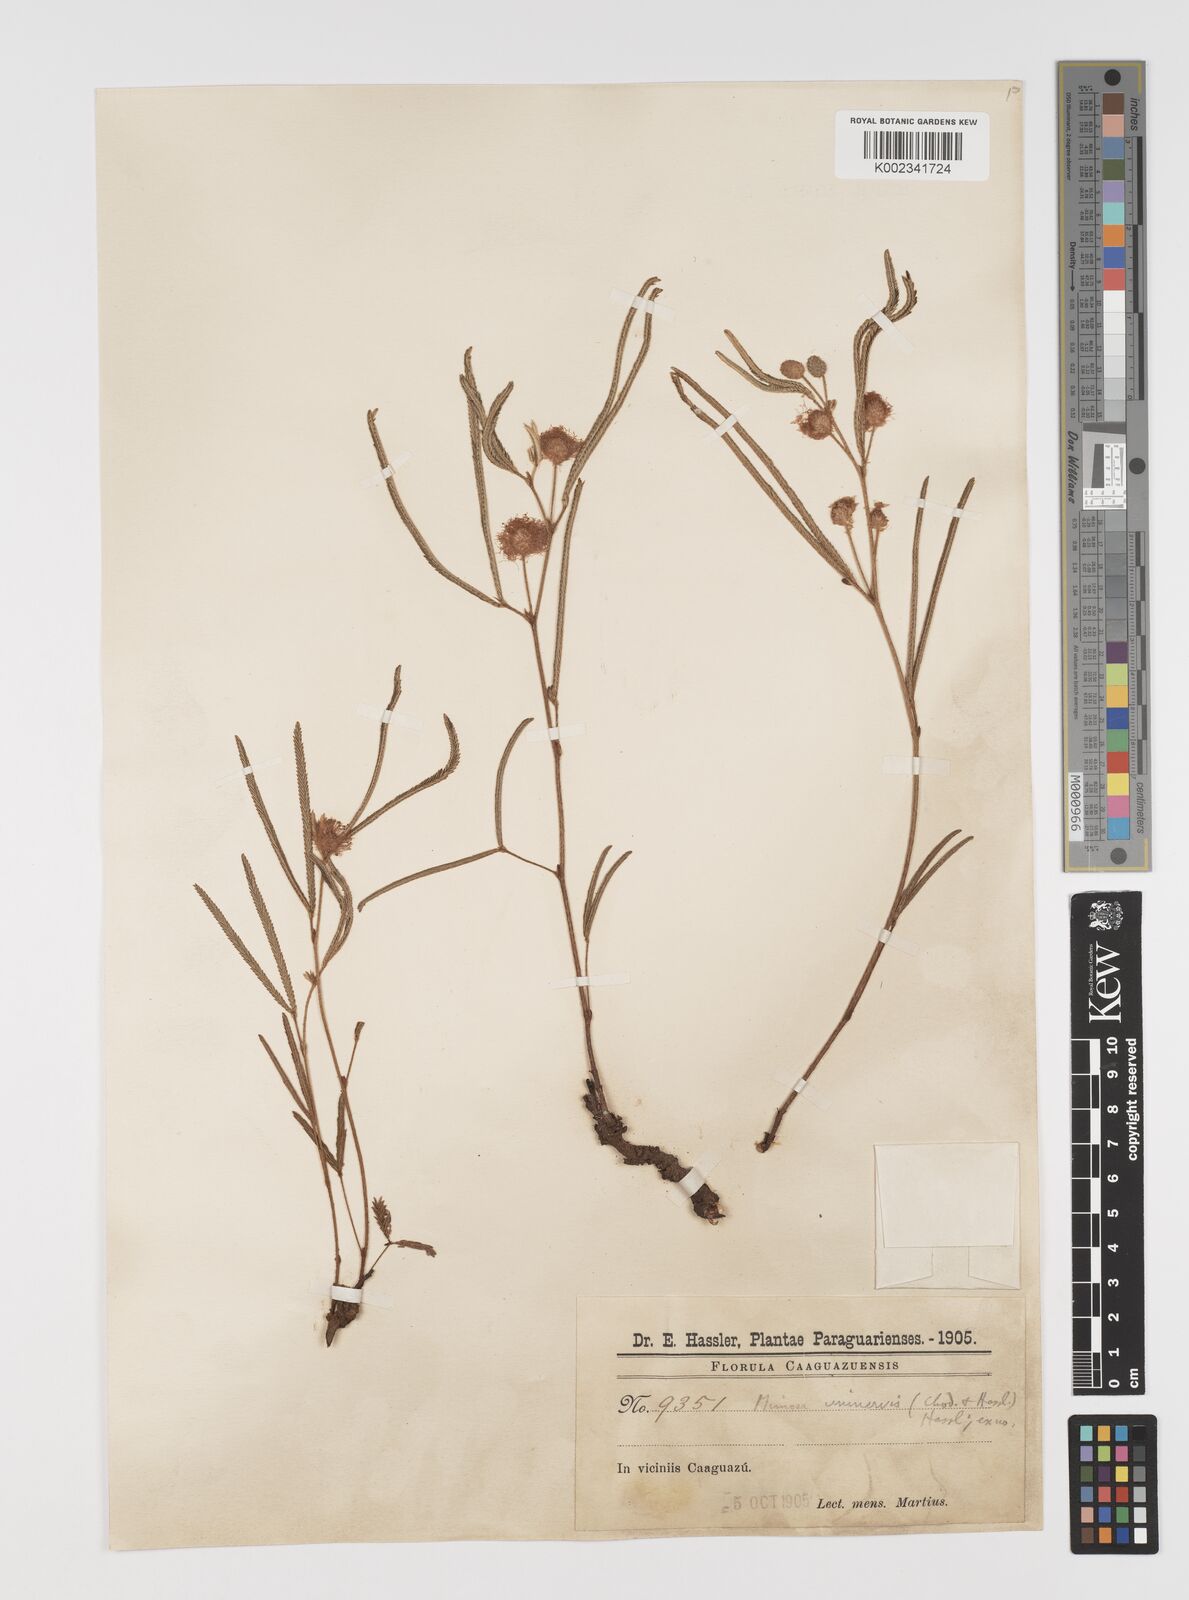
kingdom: Plantae
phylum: Tracheophyta
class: Magnoliopsida
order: Fabales
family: Fabaceae
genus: Mimosa
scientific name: Mimosa uninervis
